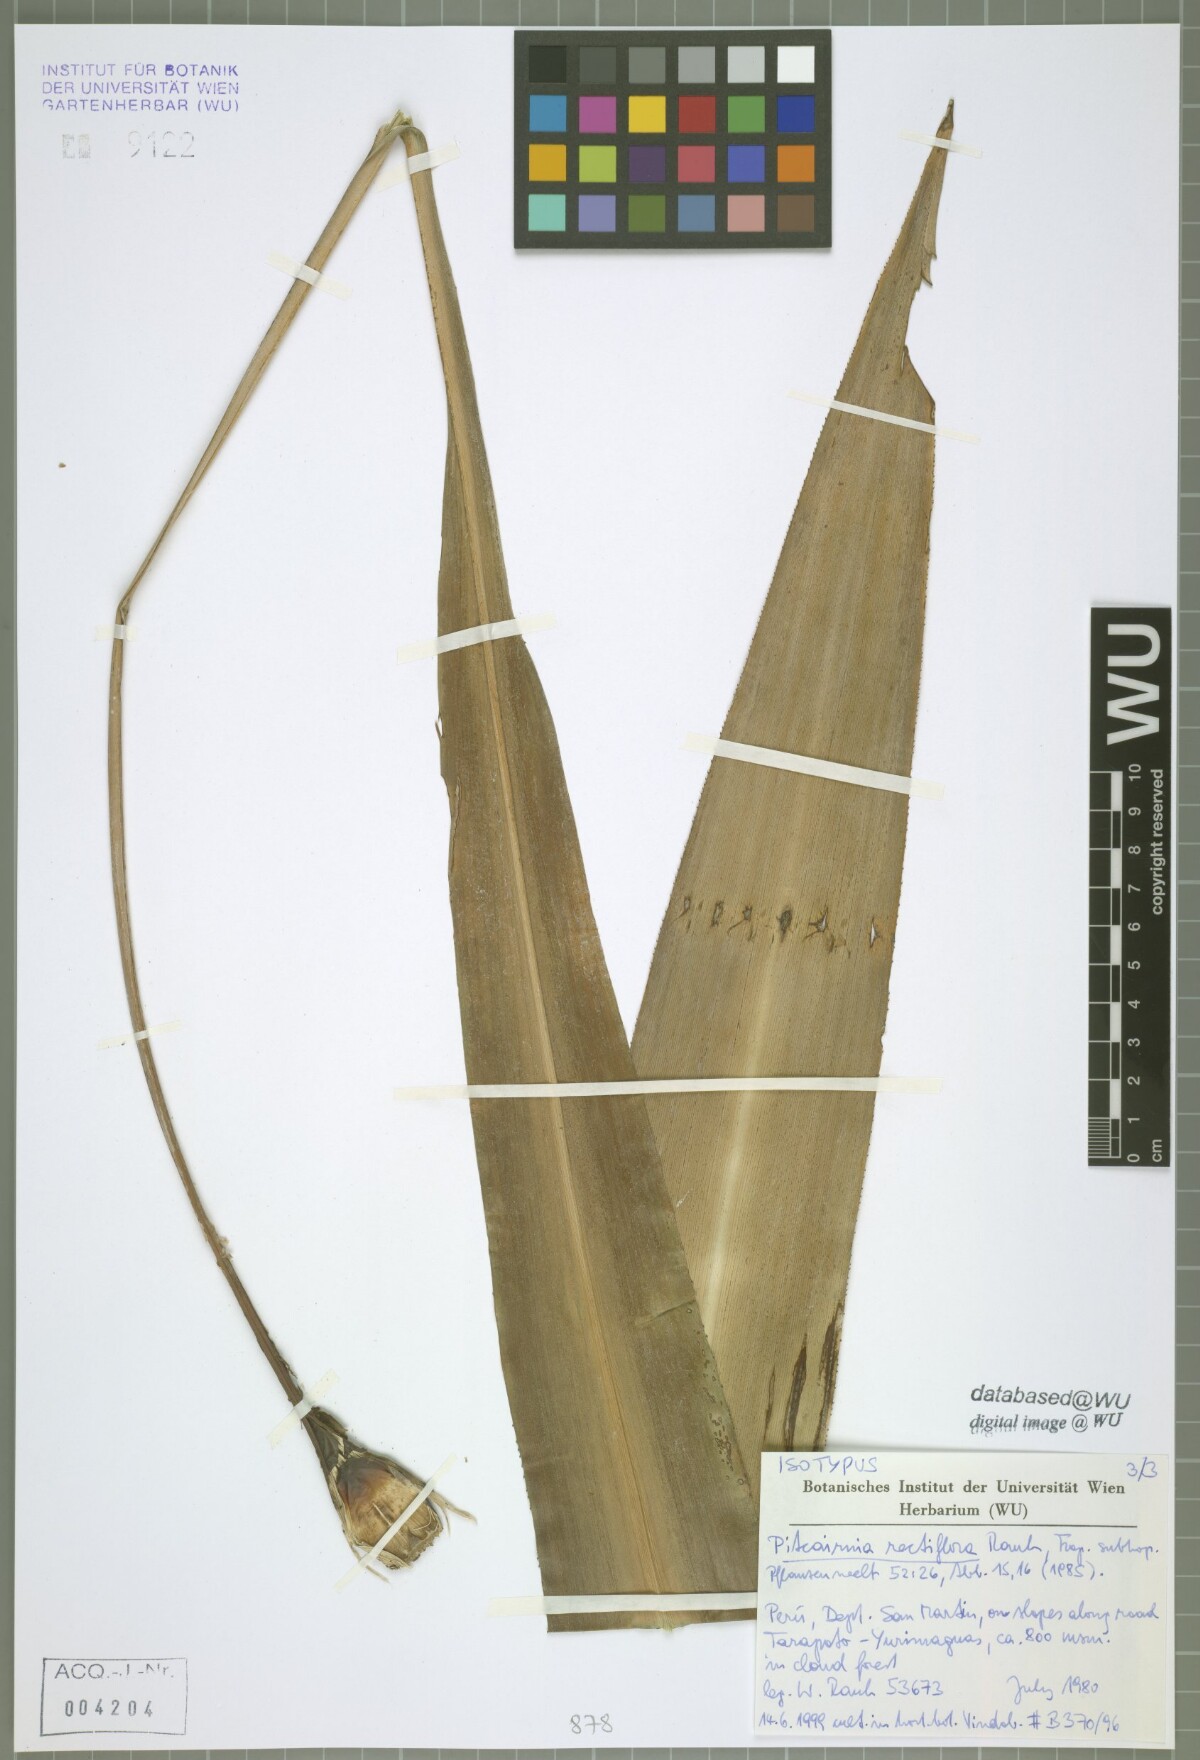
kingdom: Plantae
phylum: Tracheophyta
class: Liliopsida
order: Poales
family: Bromeliaceae
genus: Pitcairnia
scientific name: Pitcairnia rectiflora
